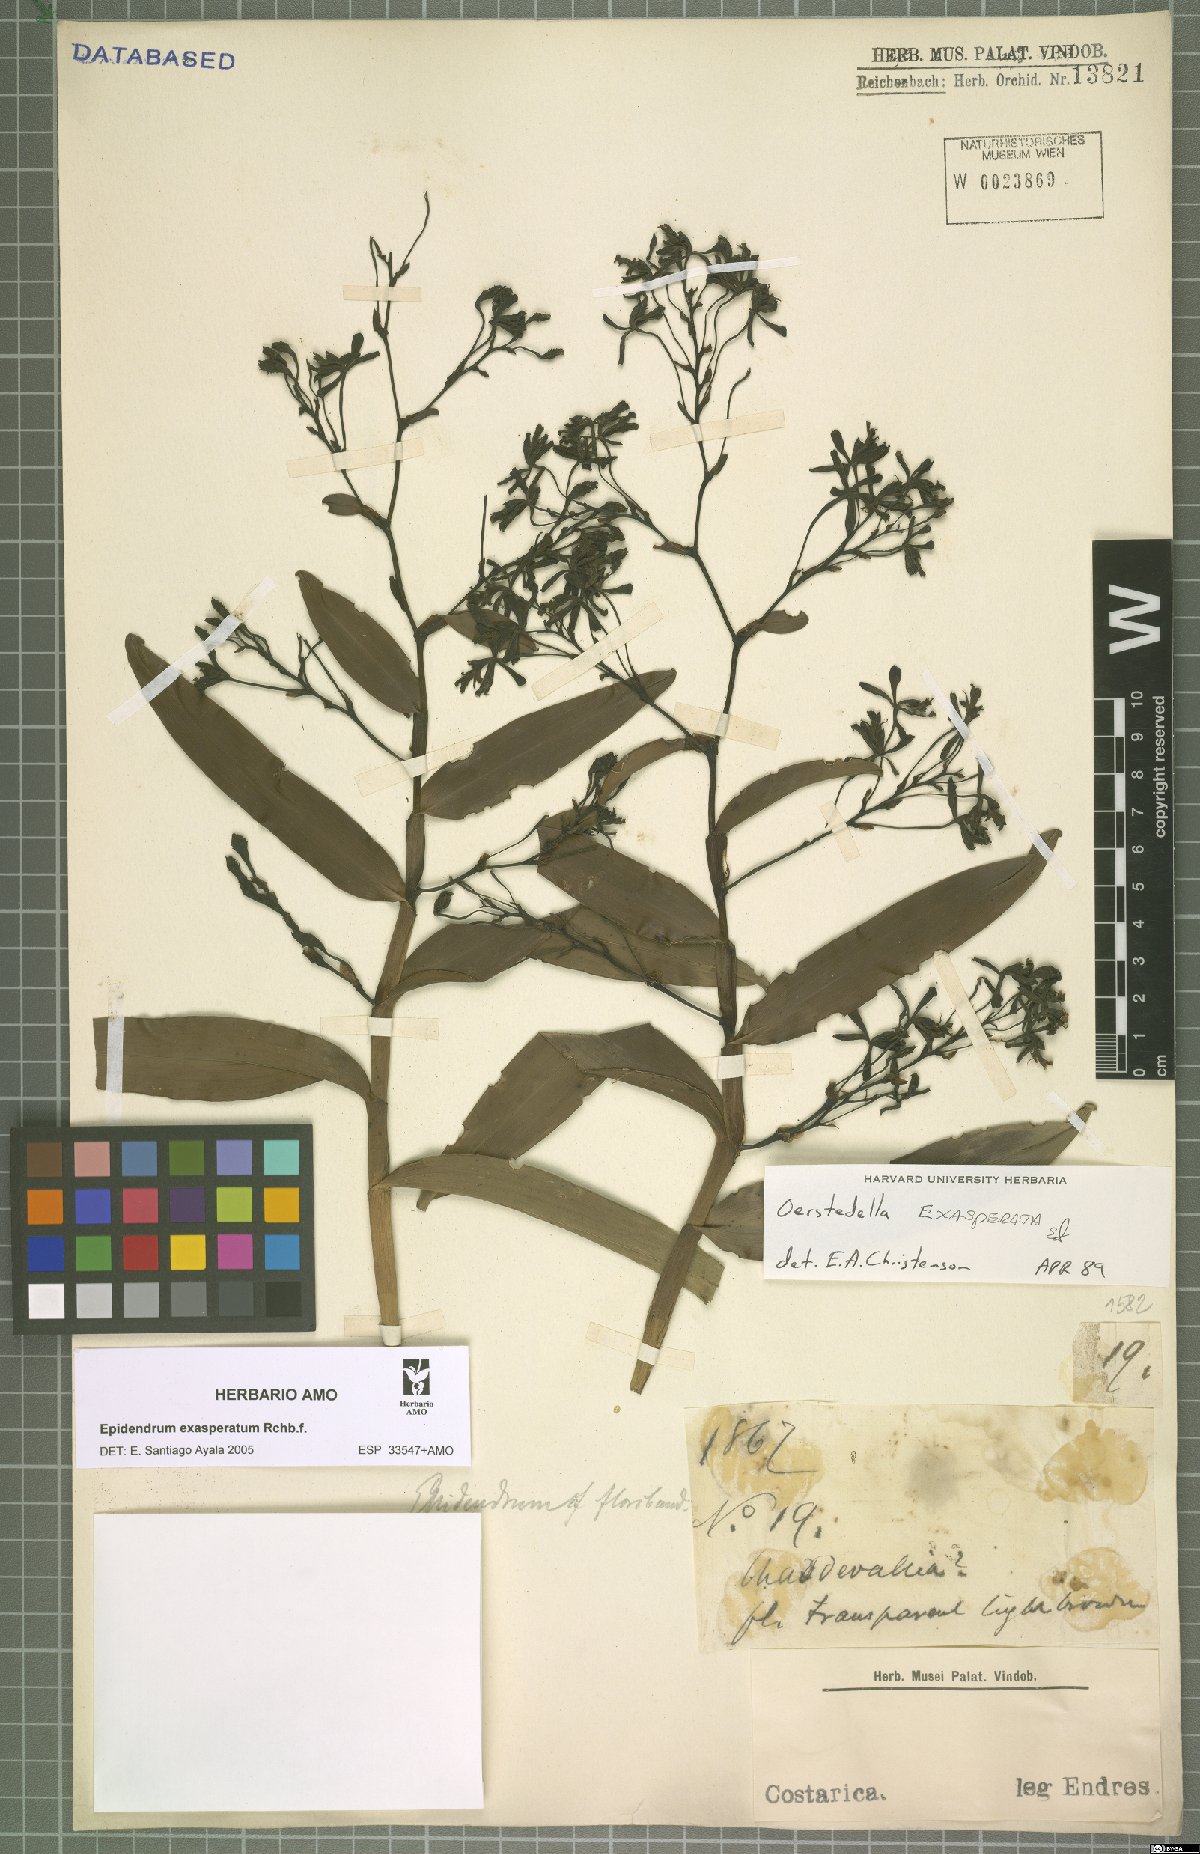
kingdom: Plantae
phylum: Tracheophyta
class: Liliopsida
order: Asparagales
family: Orchidaceae
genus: Epidendrum
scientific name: Epidendrum exasperatum
